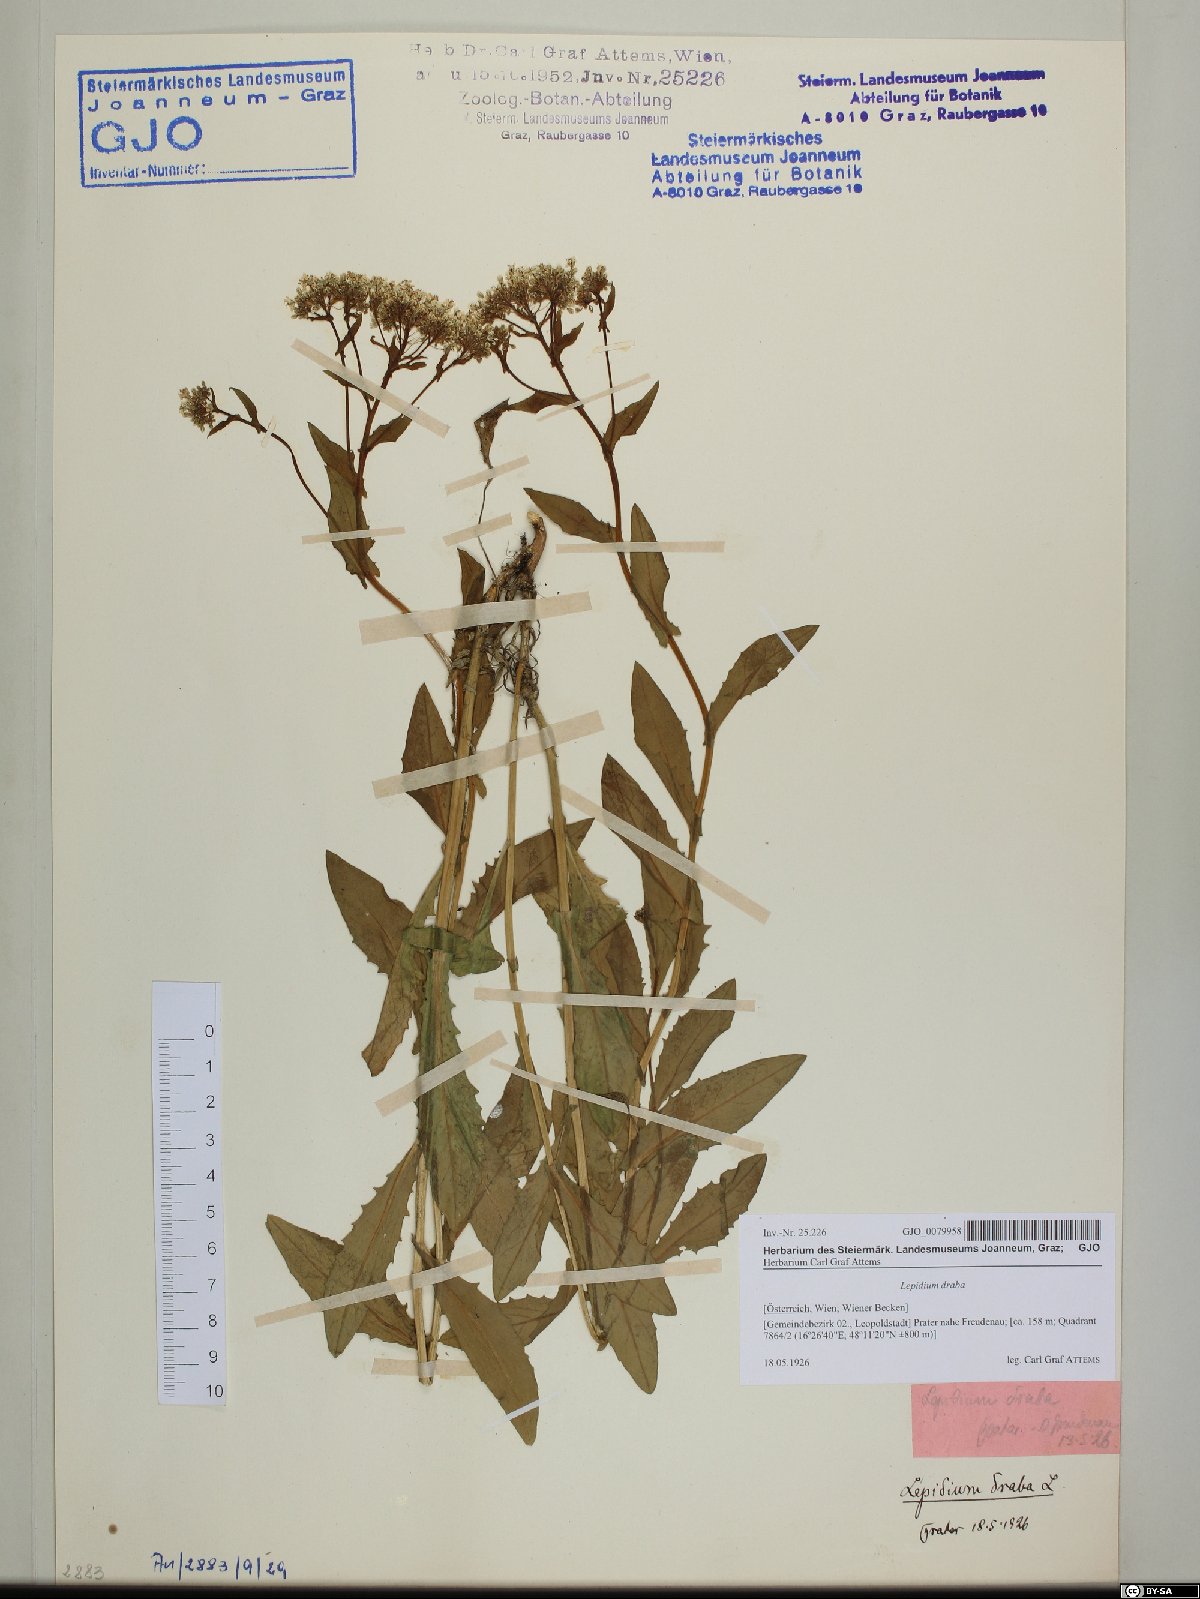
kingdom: Plantae
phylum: Tracheophyta
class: Magnoliopsida
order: Brassicales
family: Brassicaceae
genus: Lepidium
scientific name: Lepidium draba
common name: Hoary cress
